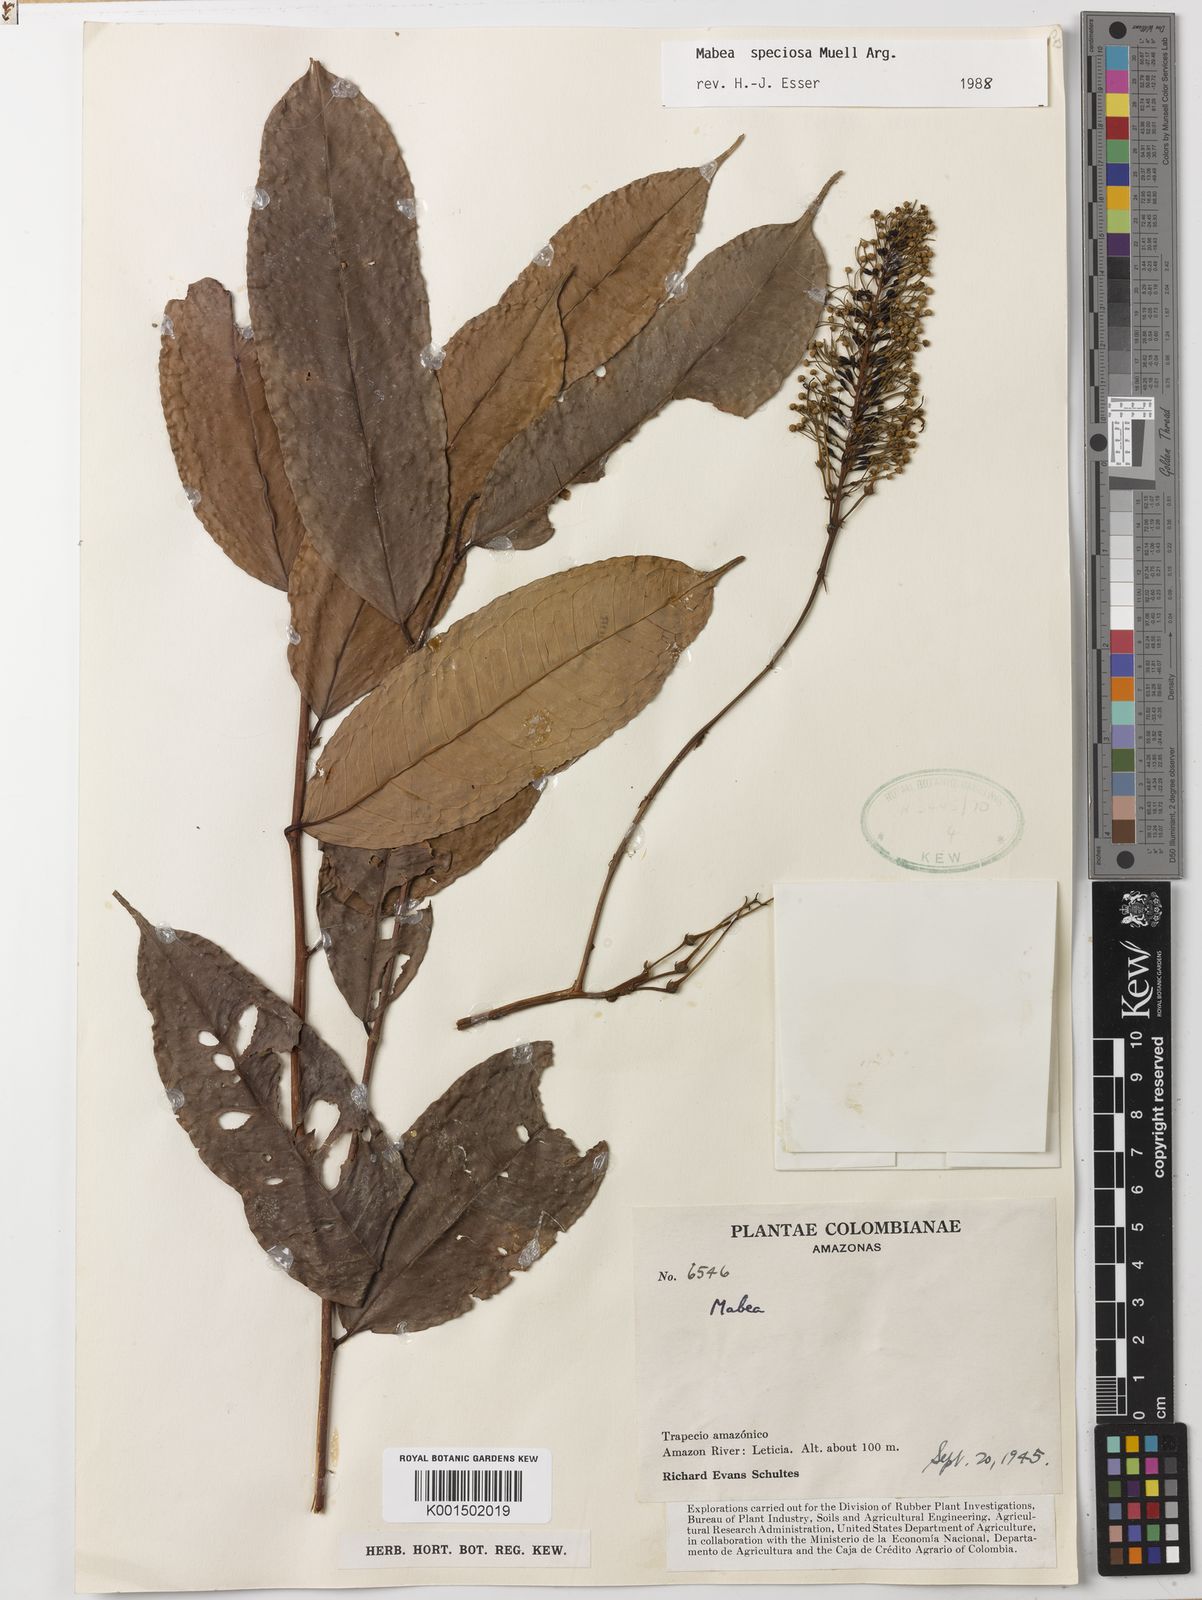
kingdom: Plantae
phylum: Tracheophyta
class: Magnoliopsida
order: Malpighiales
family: Euphorbiaceae
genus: Mabea
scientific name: Mabea speciosa
